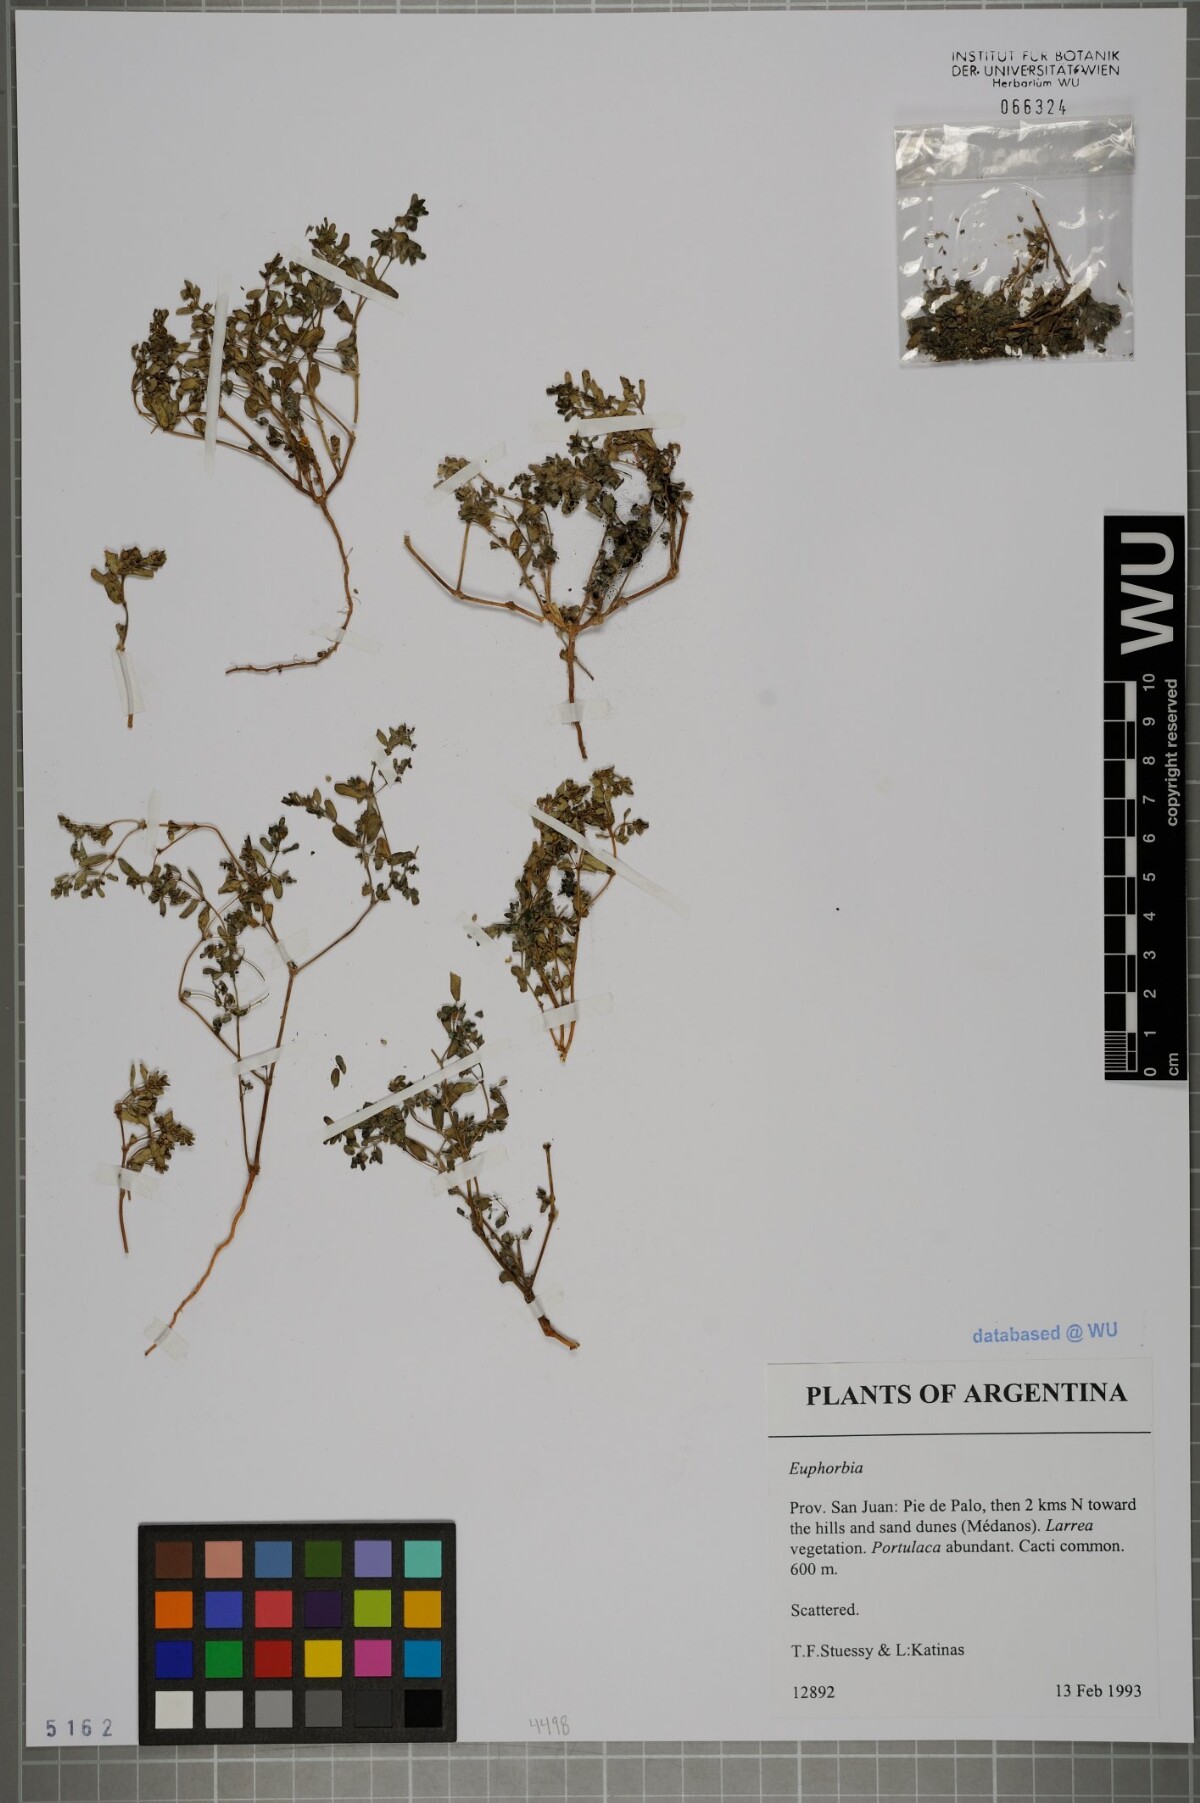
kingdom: Plantae
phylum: Tracheophyta
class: Magnoliopsida
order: Malpighiales
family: Euphorbiaceae
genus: Euphorbia
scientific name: Euphorbia
